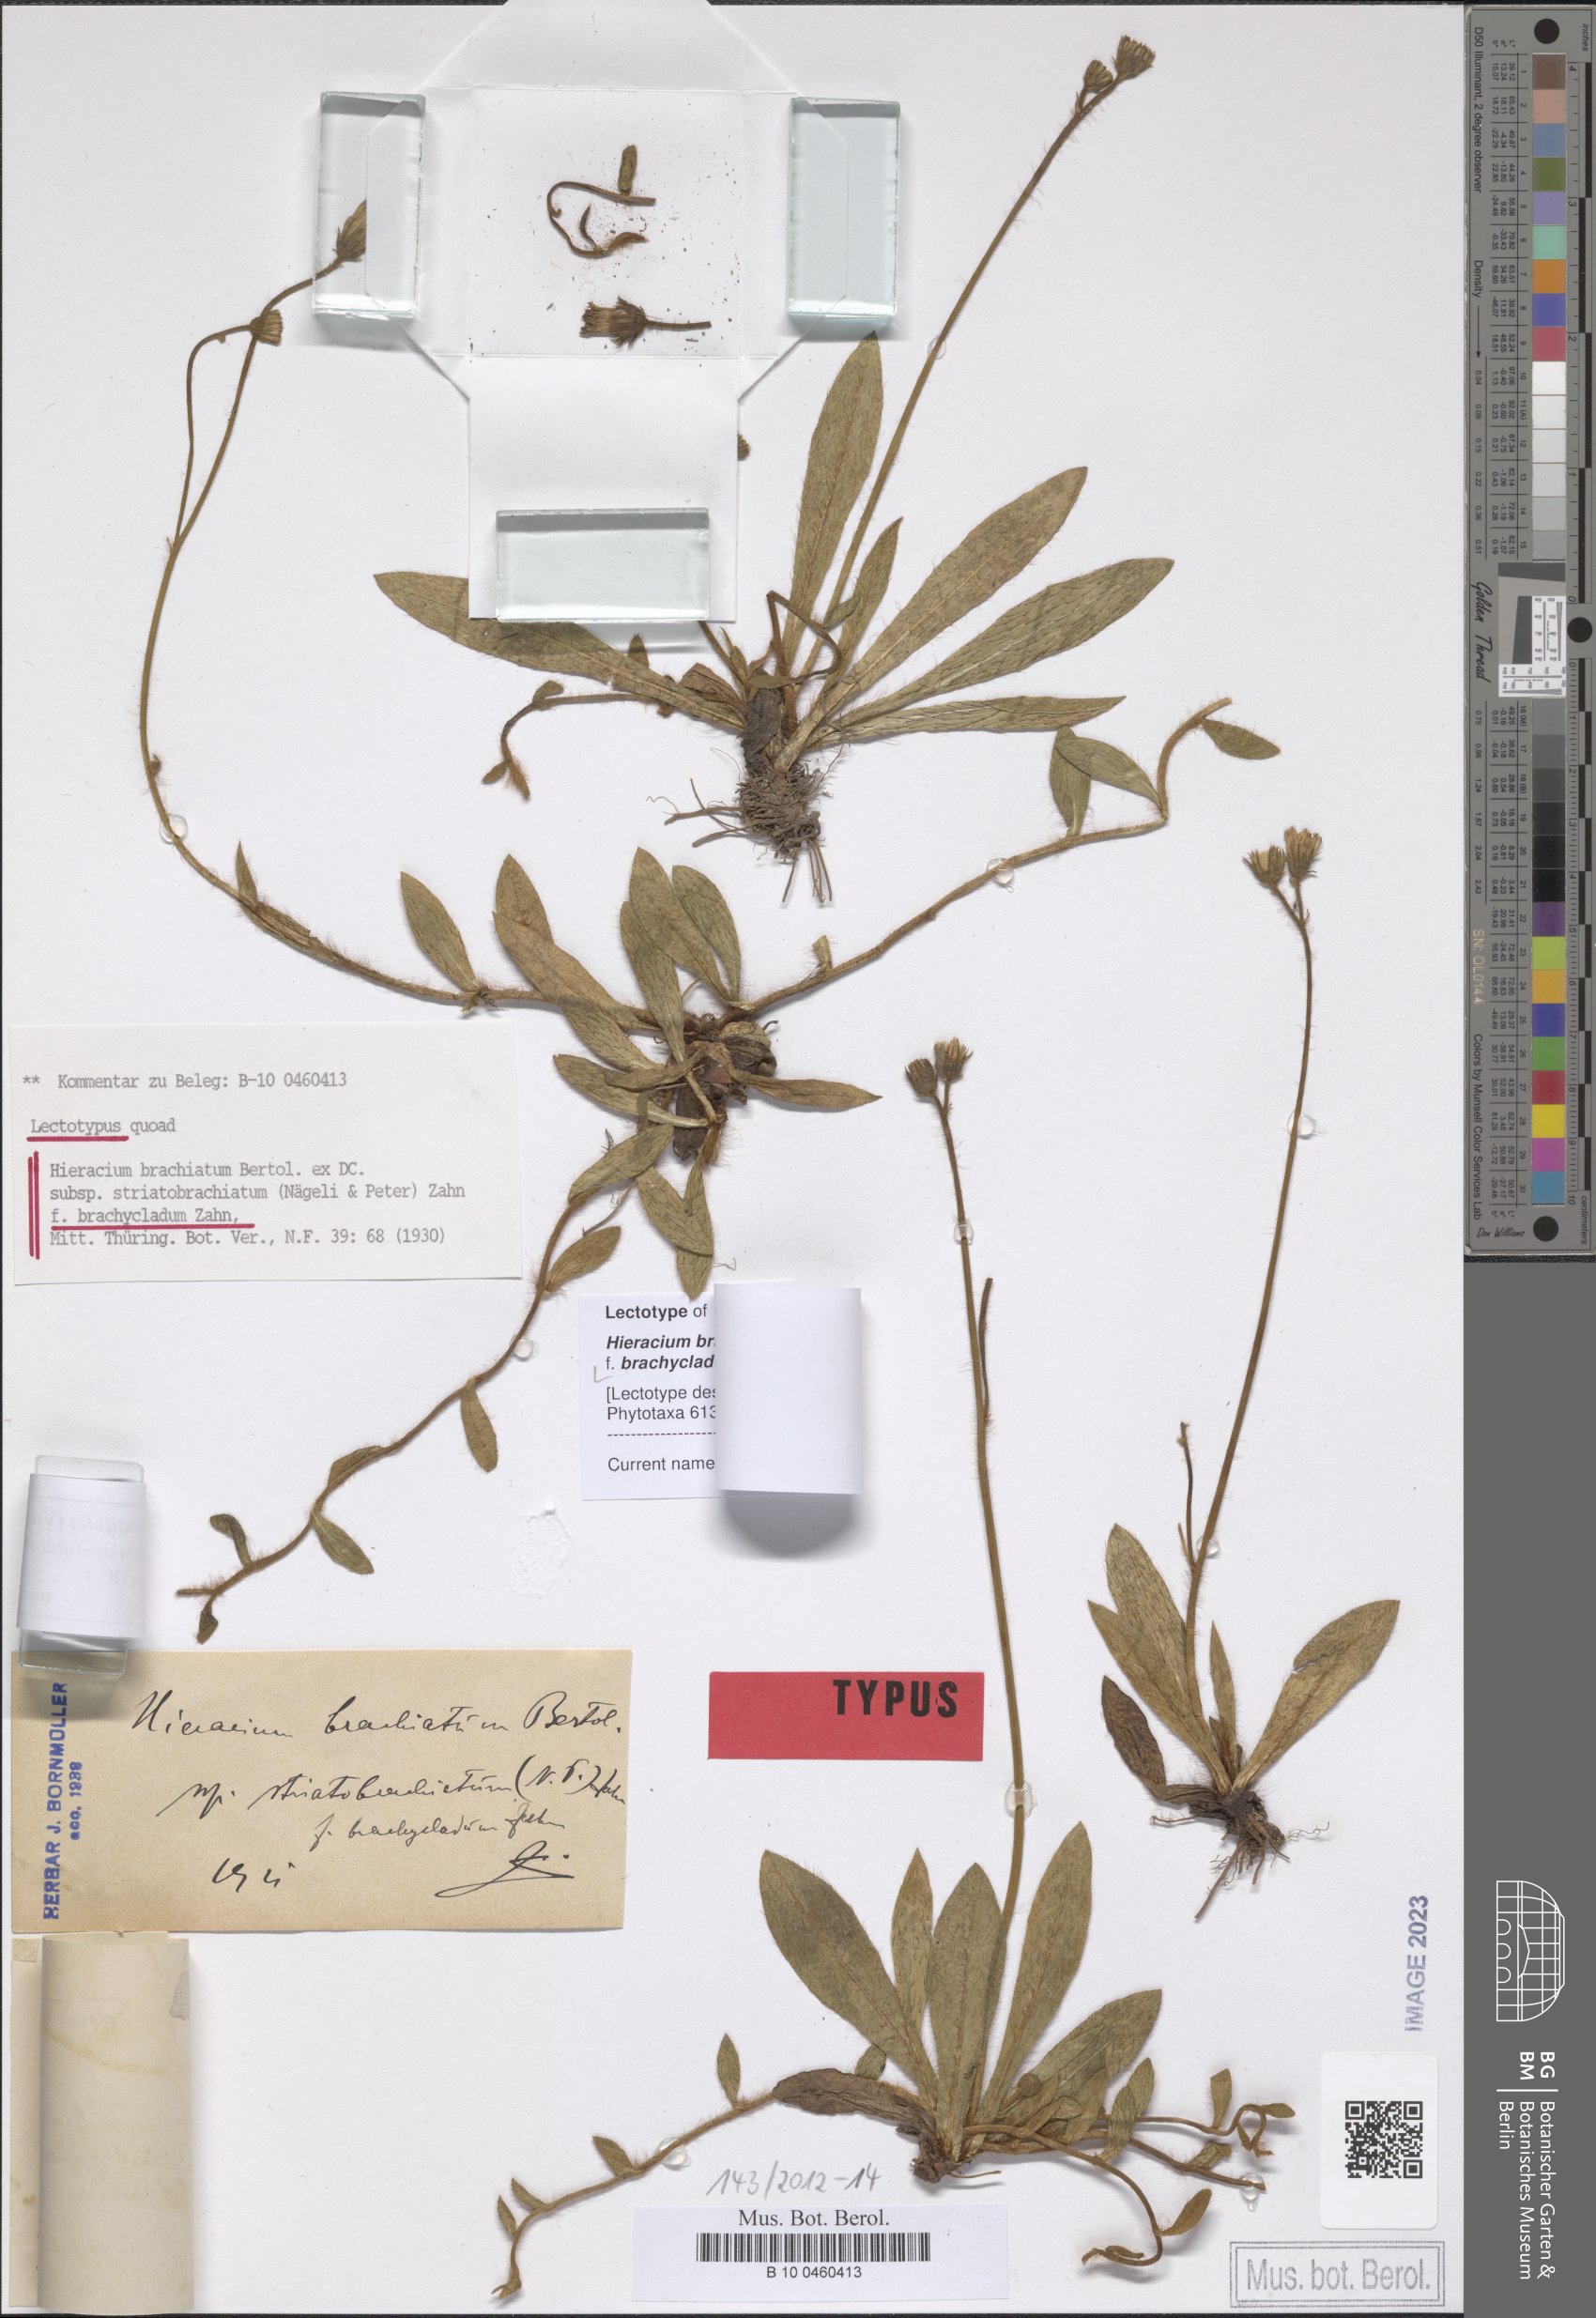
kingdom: Plantae
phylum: Tracheophyta
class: Magnoliopsida
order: Asterales
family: Asteraceae
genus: Pilosella
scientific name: Pilosella acutifolia
